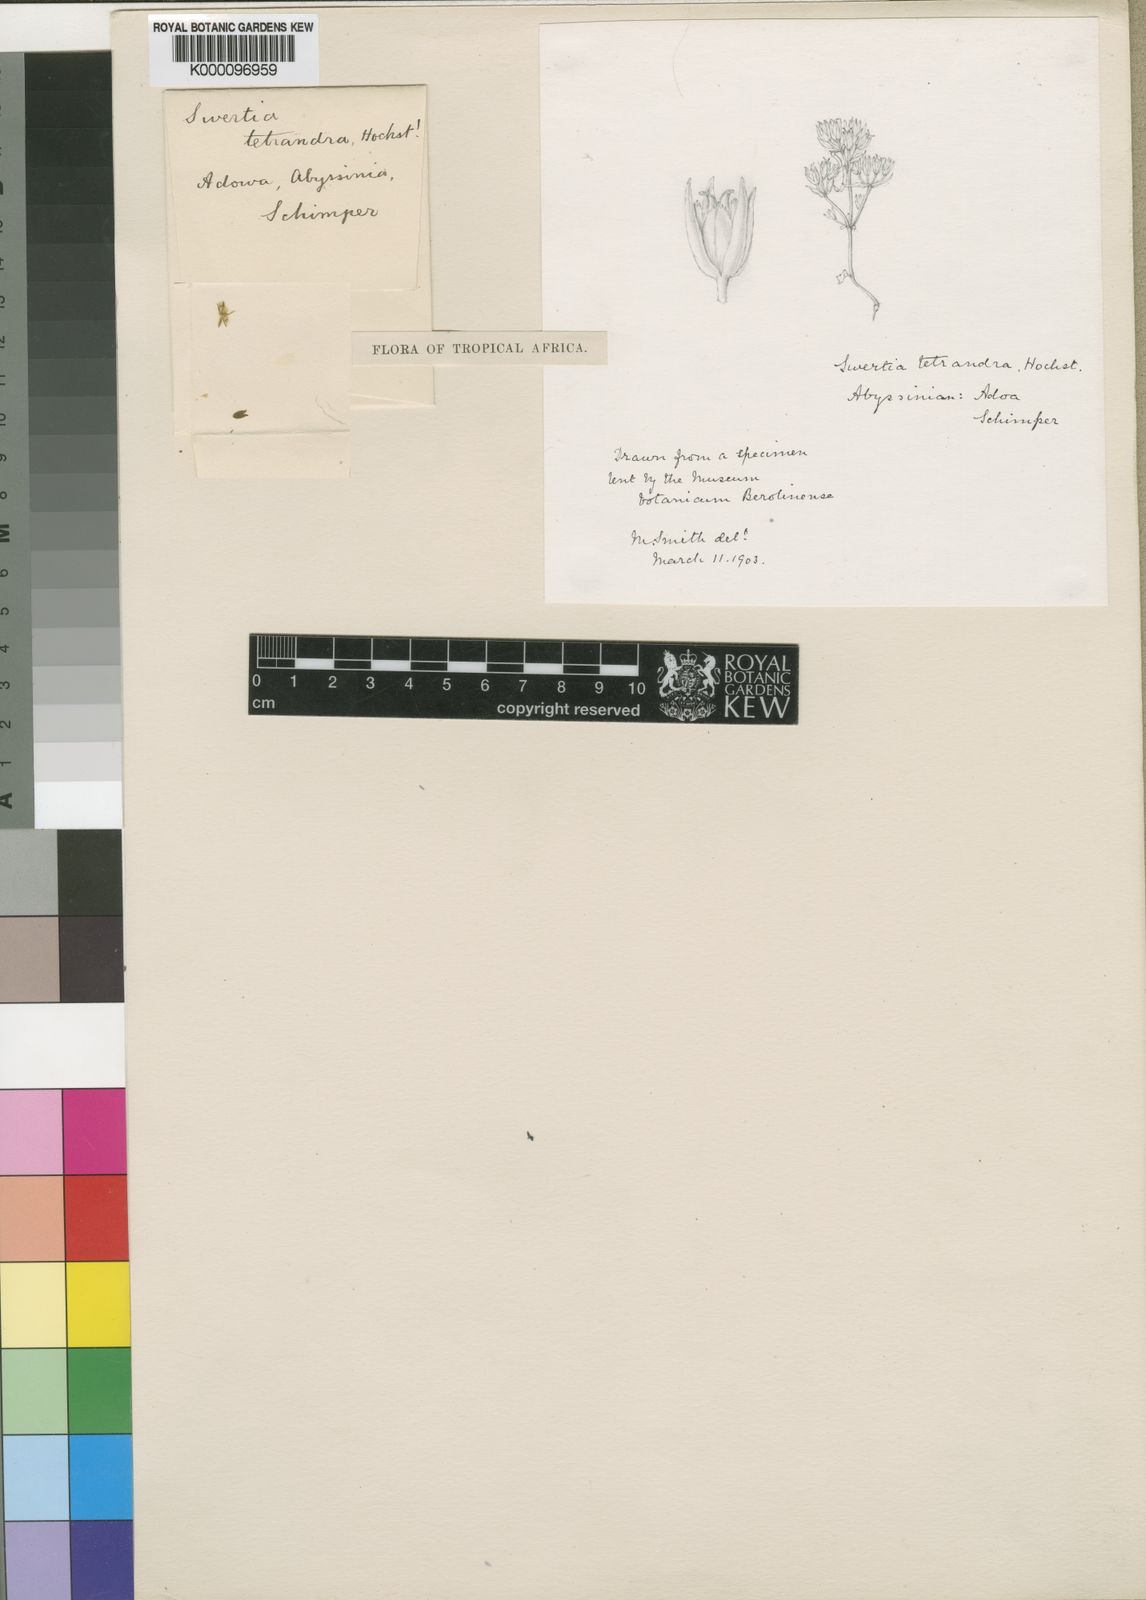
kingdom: Plantae
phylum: Tracheophyta
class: Magnoliopsida
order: Gentianales
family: Gentianaceae
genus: Swertia
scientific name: Swertia eminii
